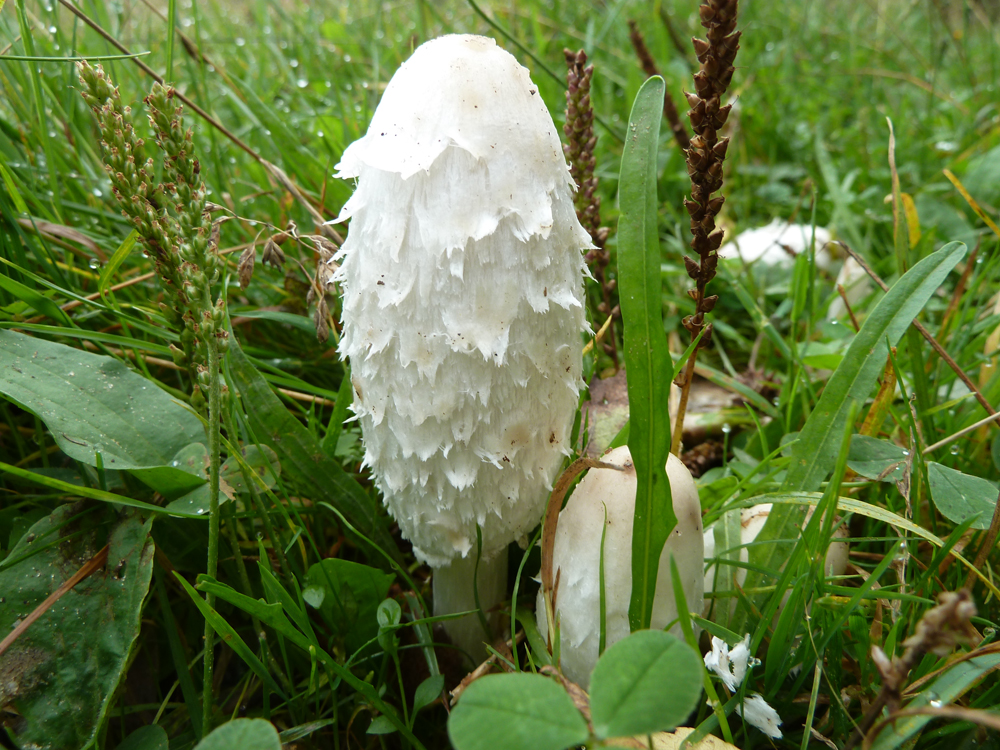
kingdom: Fungi
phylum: Basidiomycota
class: Agaricomycetes
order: Agaricales
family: Agaricaceae
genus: Coprinus
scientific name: Coprinus comatus
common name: Lawyer's wig
